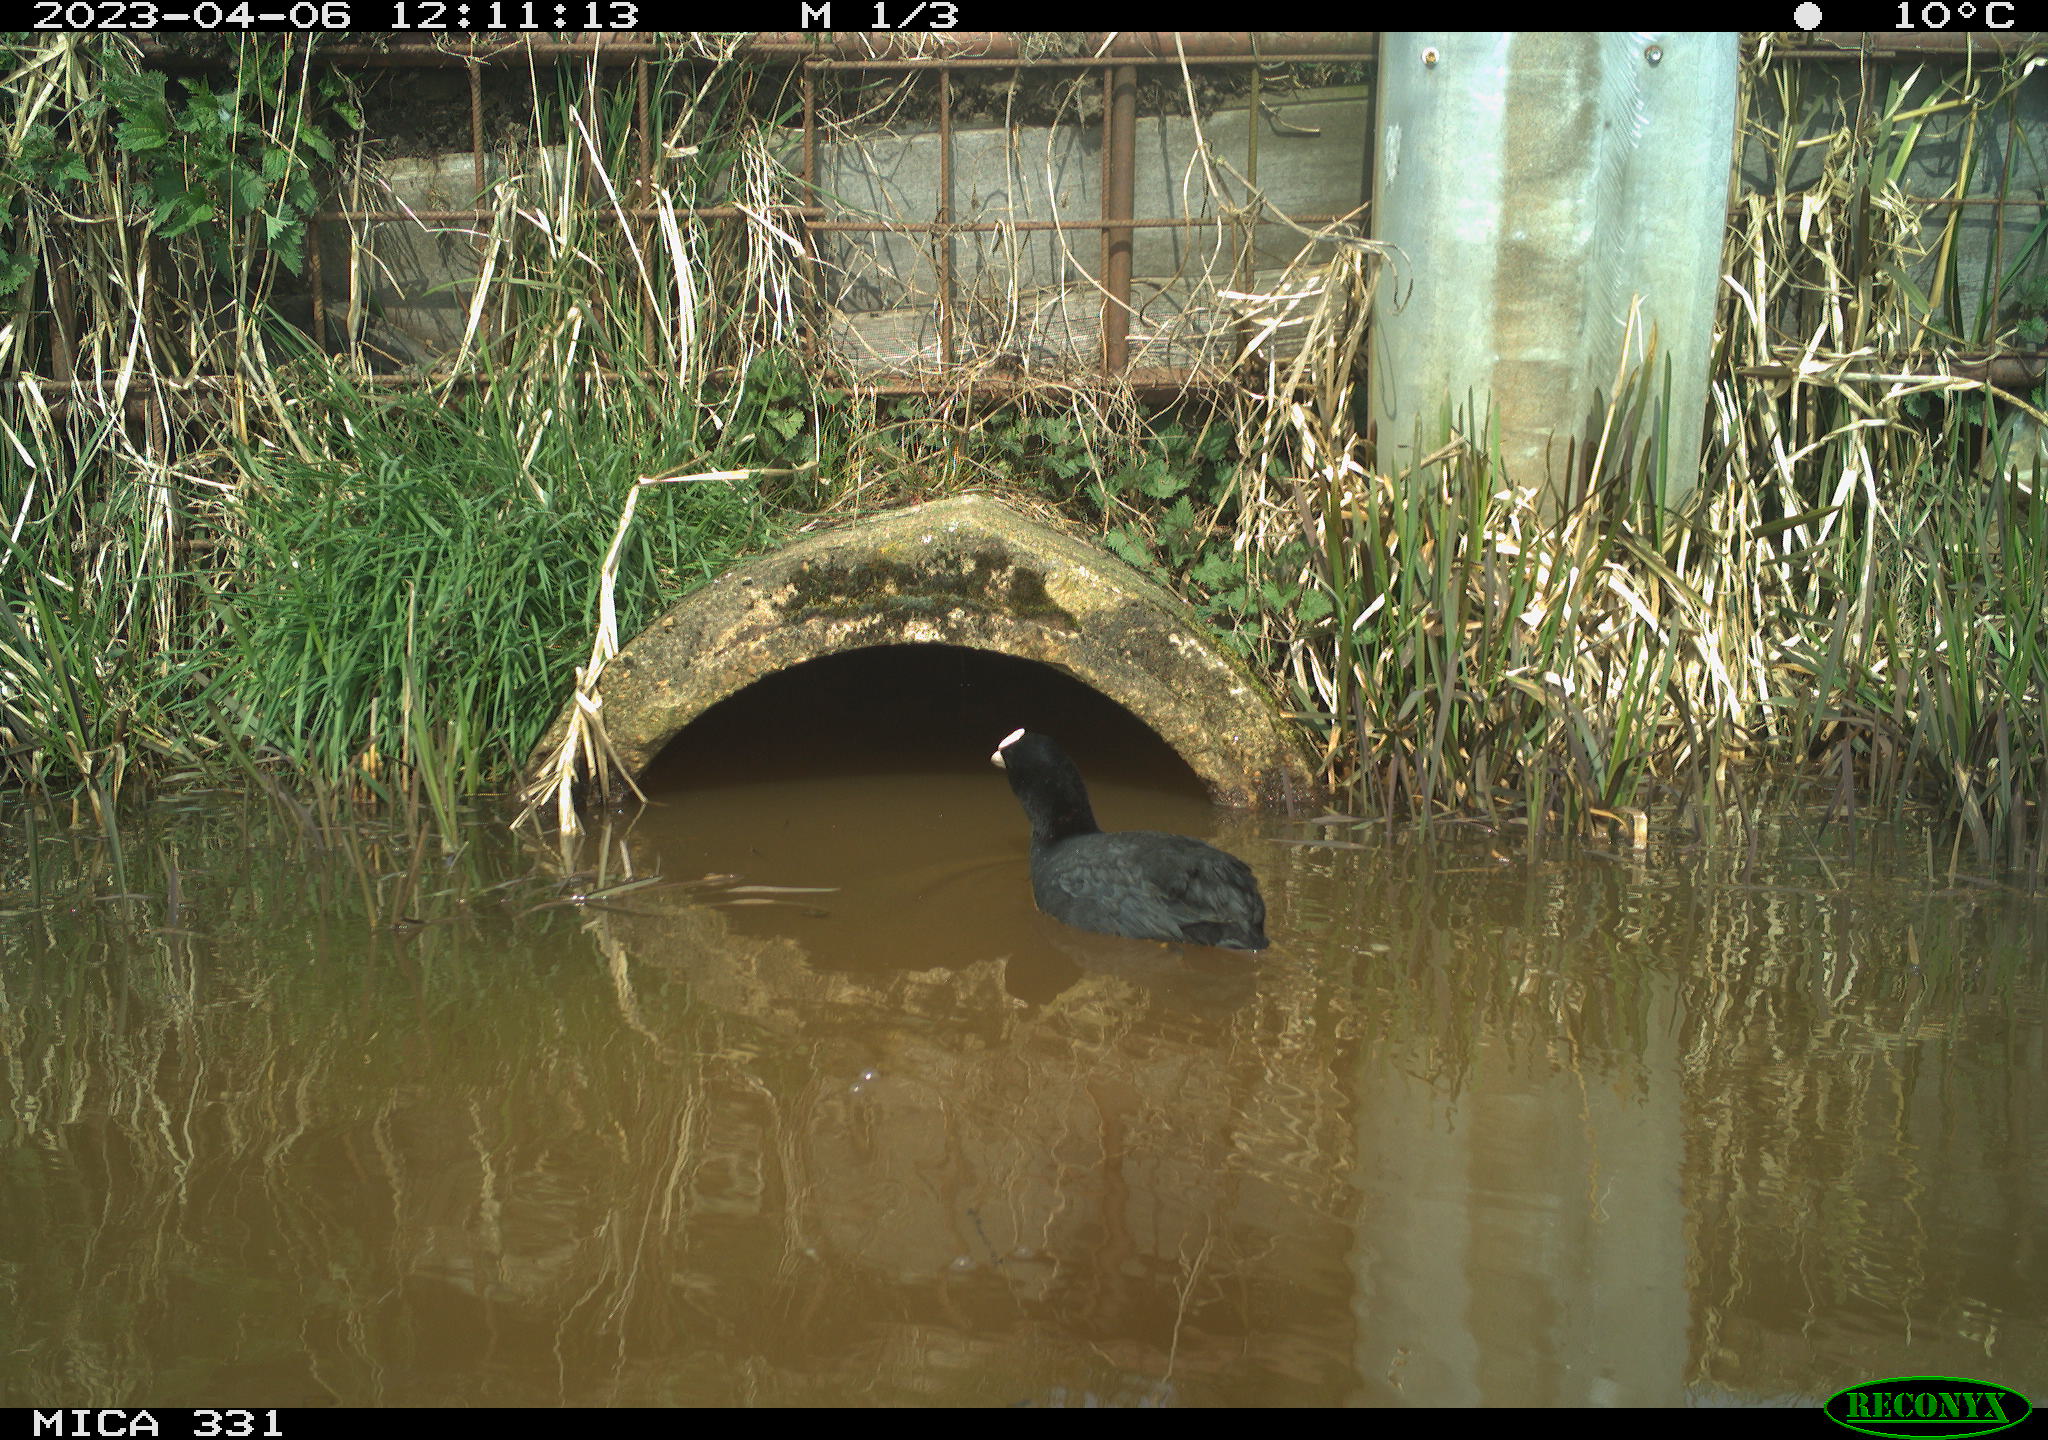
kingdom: Animalia
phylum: Chordata
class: Aves
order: Gruiformes
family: Rallidae
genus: Fulica
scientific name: Fulica atra
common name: Eurasian coot
